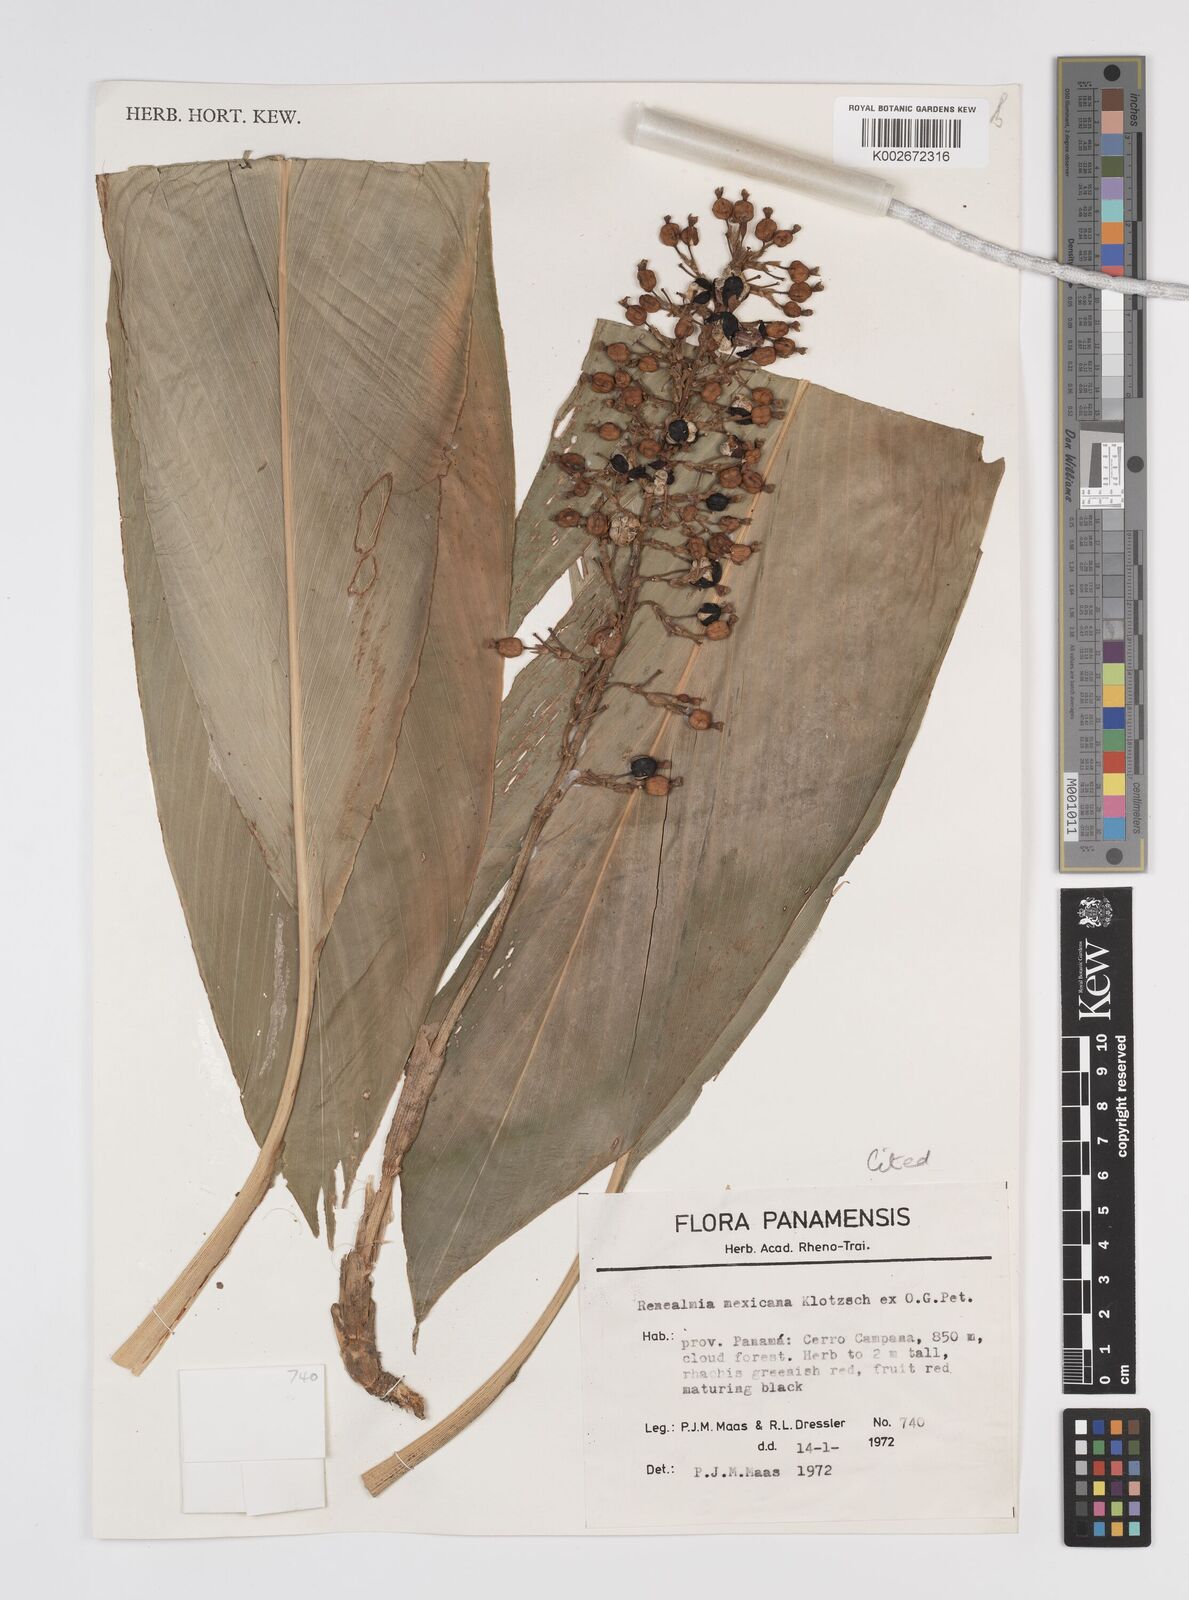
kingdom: Plantae
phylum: Tracheophyta
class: Liliopsida
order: Zingiberales
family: Zingiberaceae
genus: Renealmia
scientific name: Renealmia mexicana
